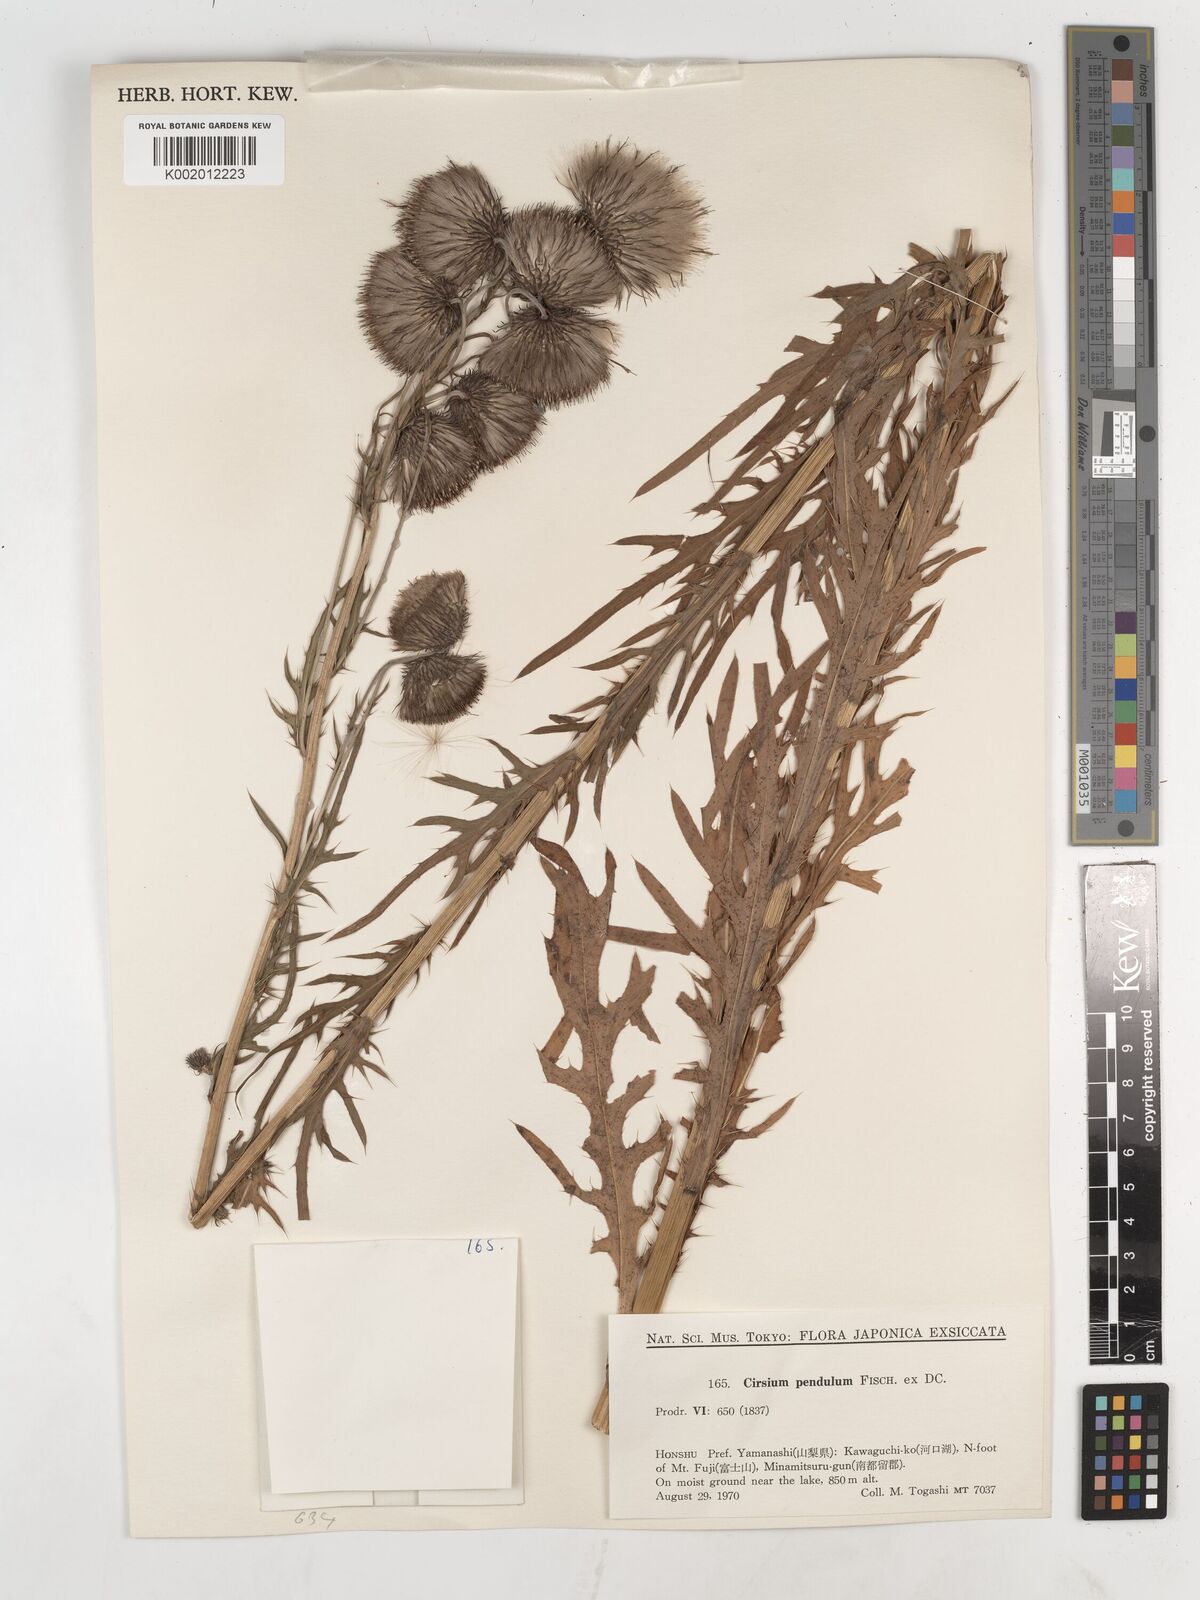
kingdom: Plantae
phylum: Tracheophyta
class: Magnoliopsida
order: Asterales
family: Asteraceae
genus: Cirsium
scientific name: Cirsium pendulum
